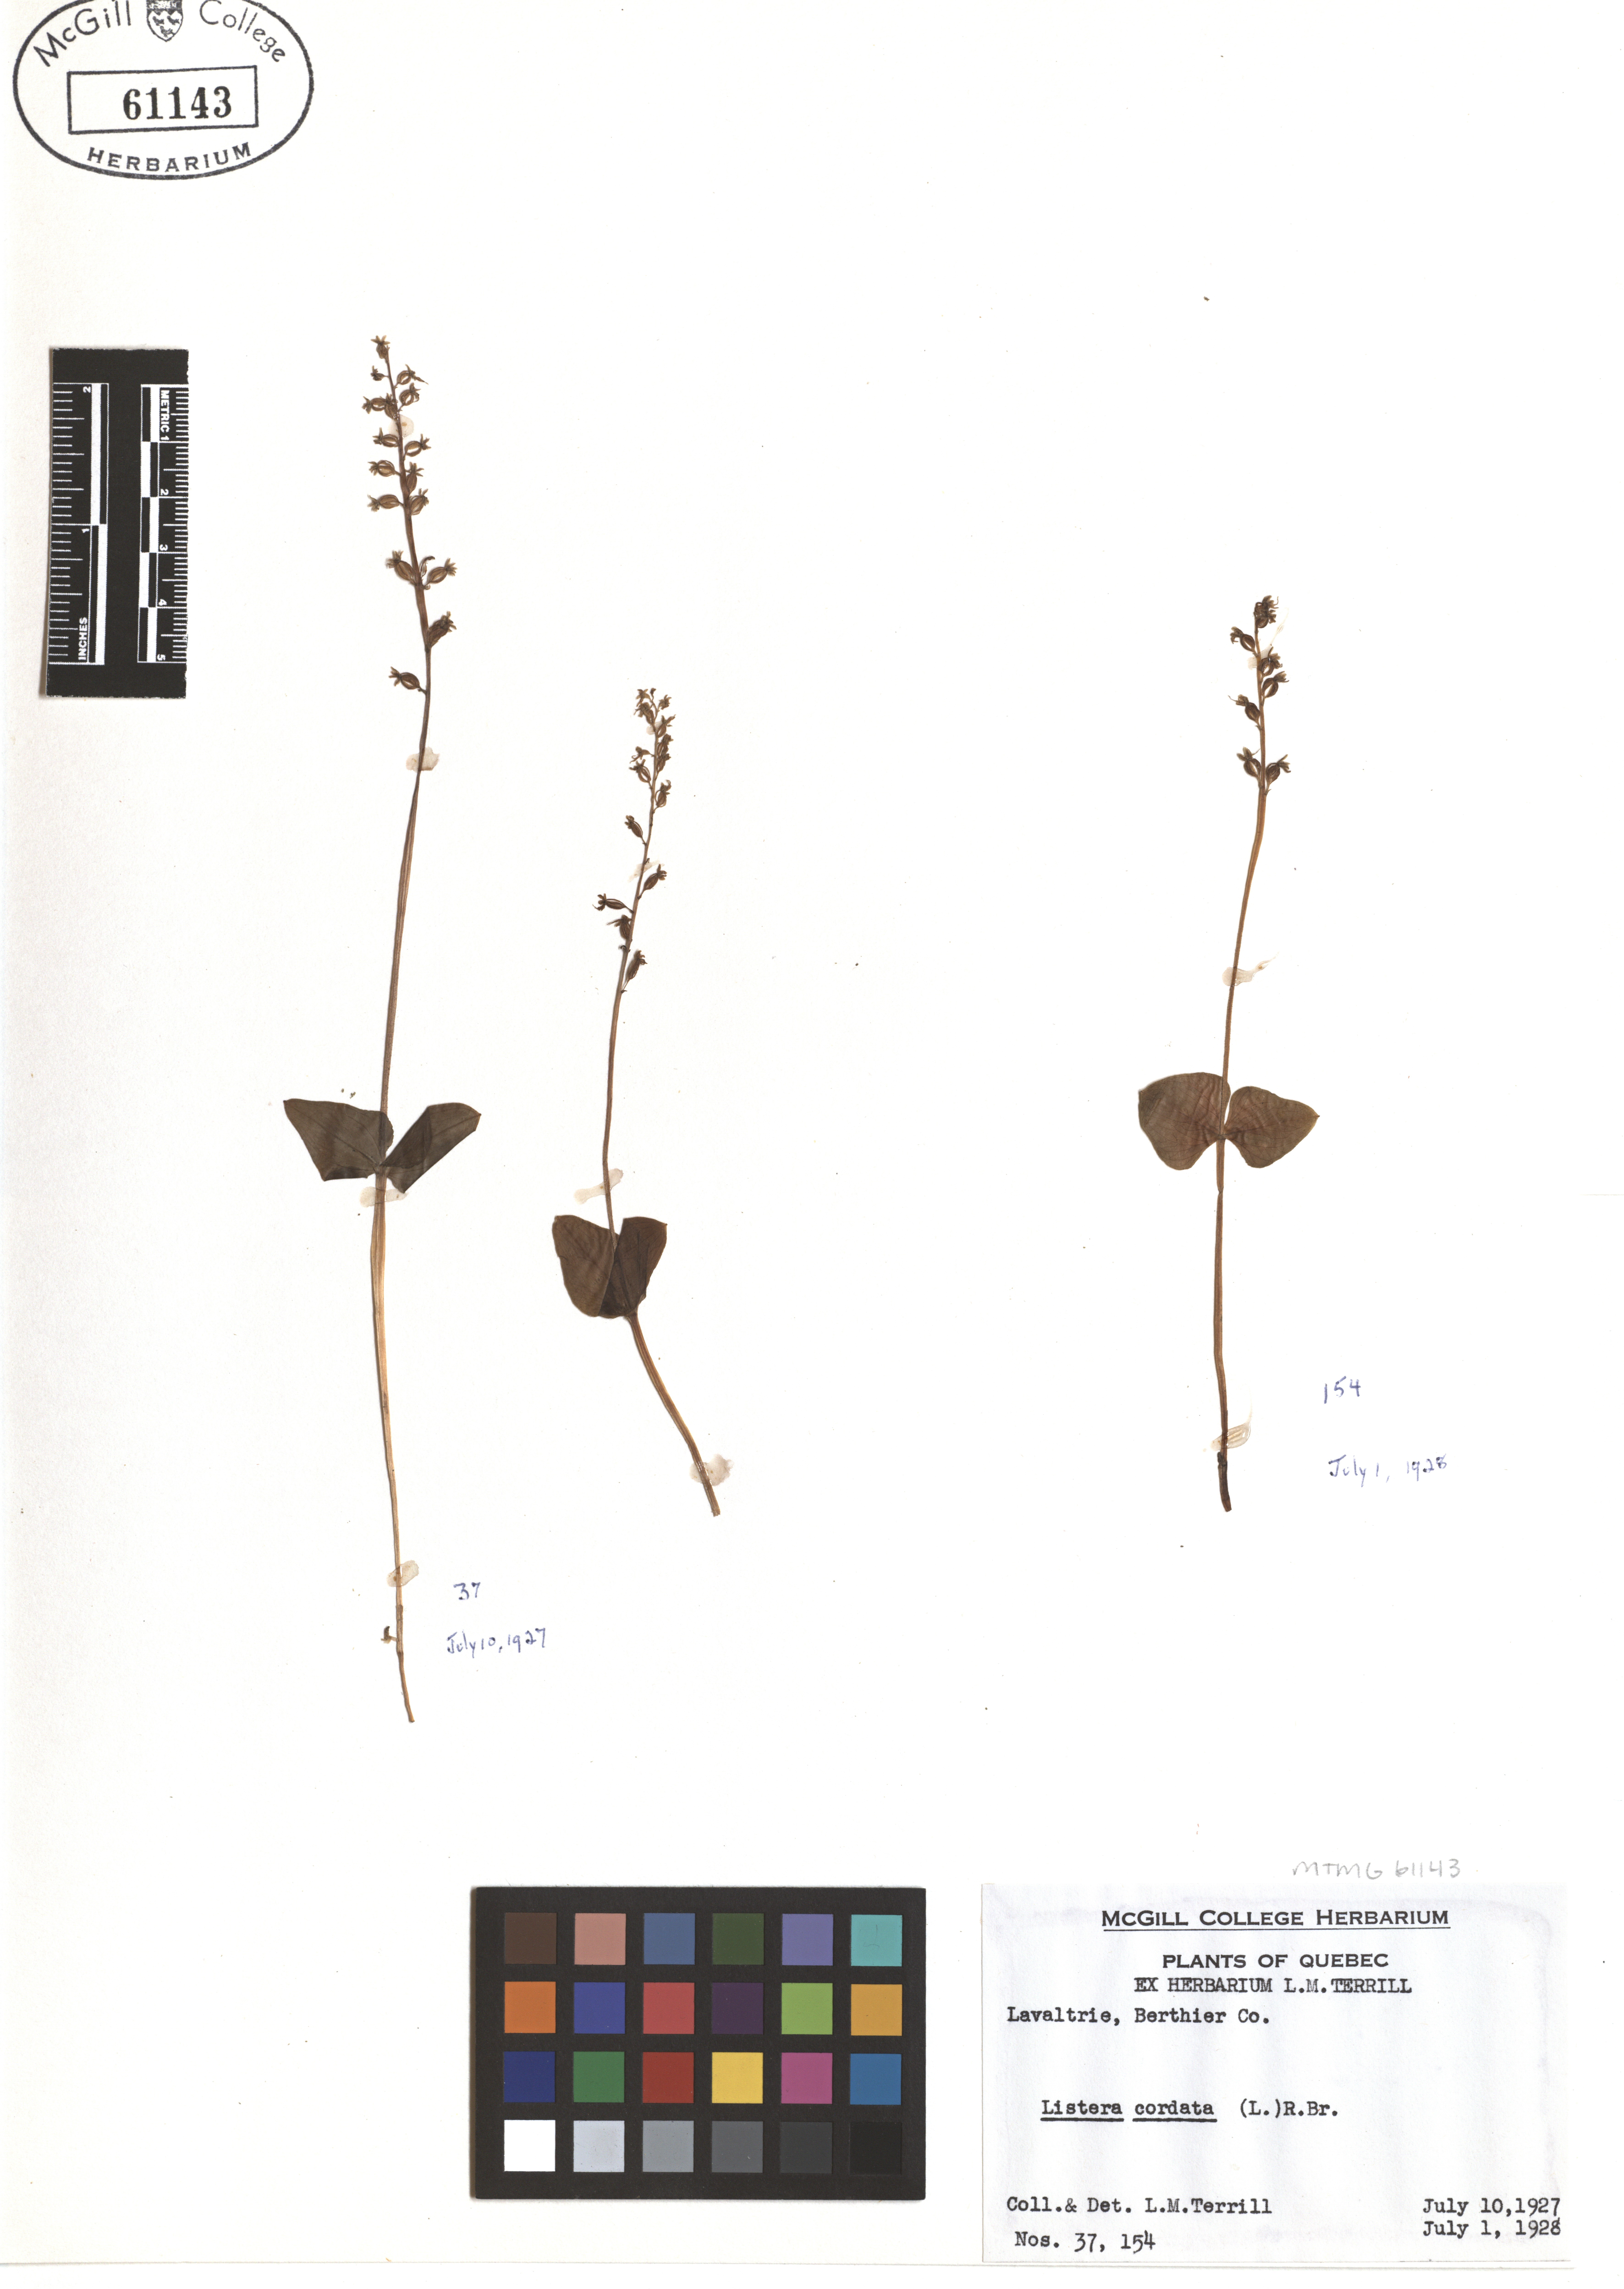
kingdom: Plantae
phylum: Tracheophyta
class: Liliopsida
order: Asparagales
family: Orchidaceae
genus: Neottia
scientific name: Neottia cordata
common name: Lesser twayblade
